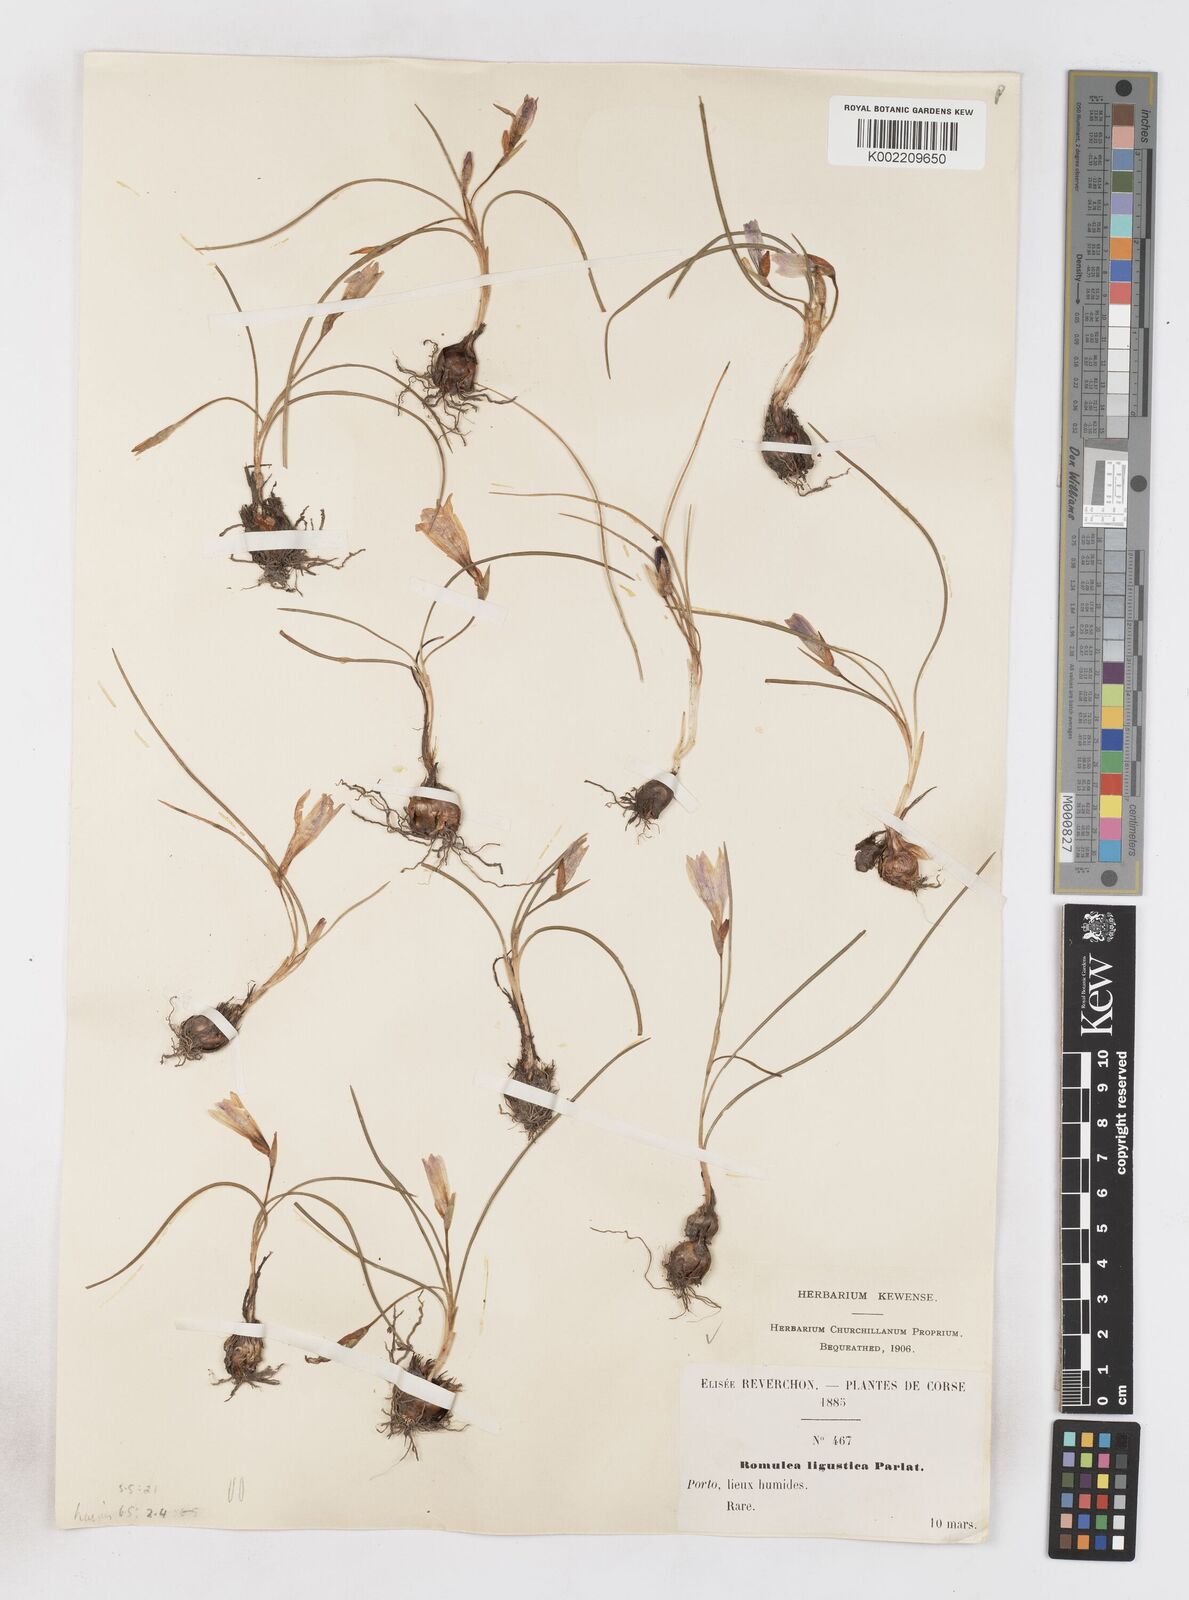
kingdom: Plantae
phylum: Tracheophyta
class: Liliopsida
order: Asparagales
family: Iridaceae
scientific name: Iridaceae
